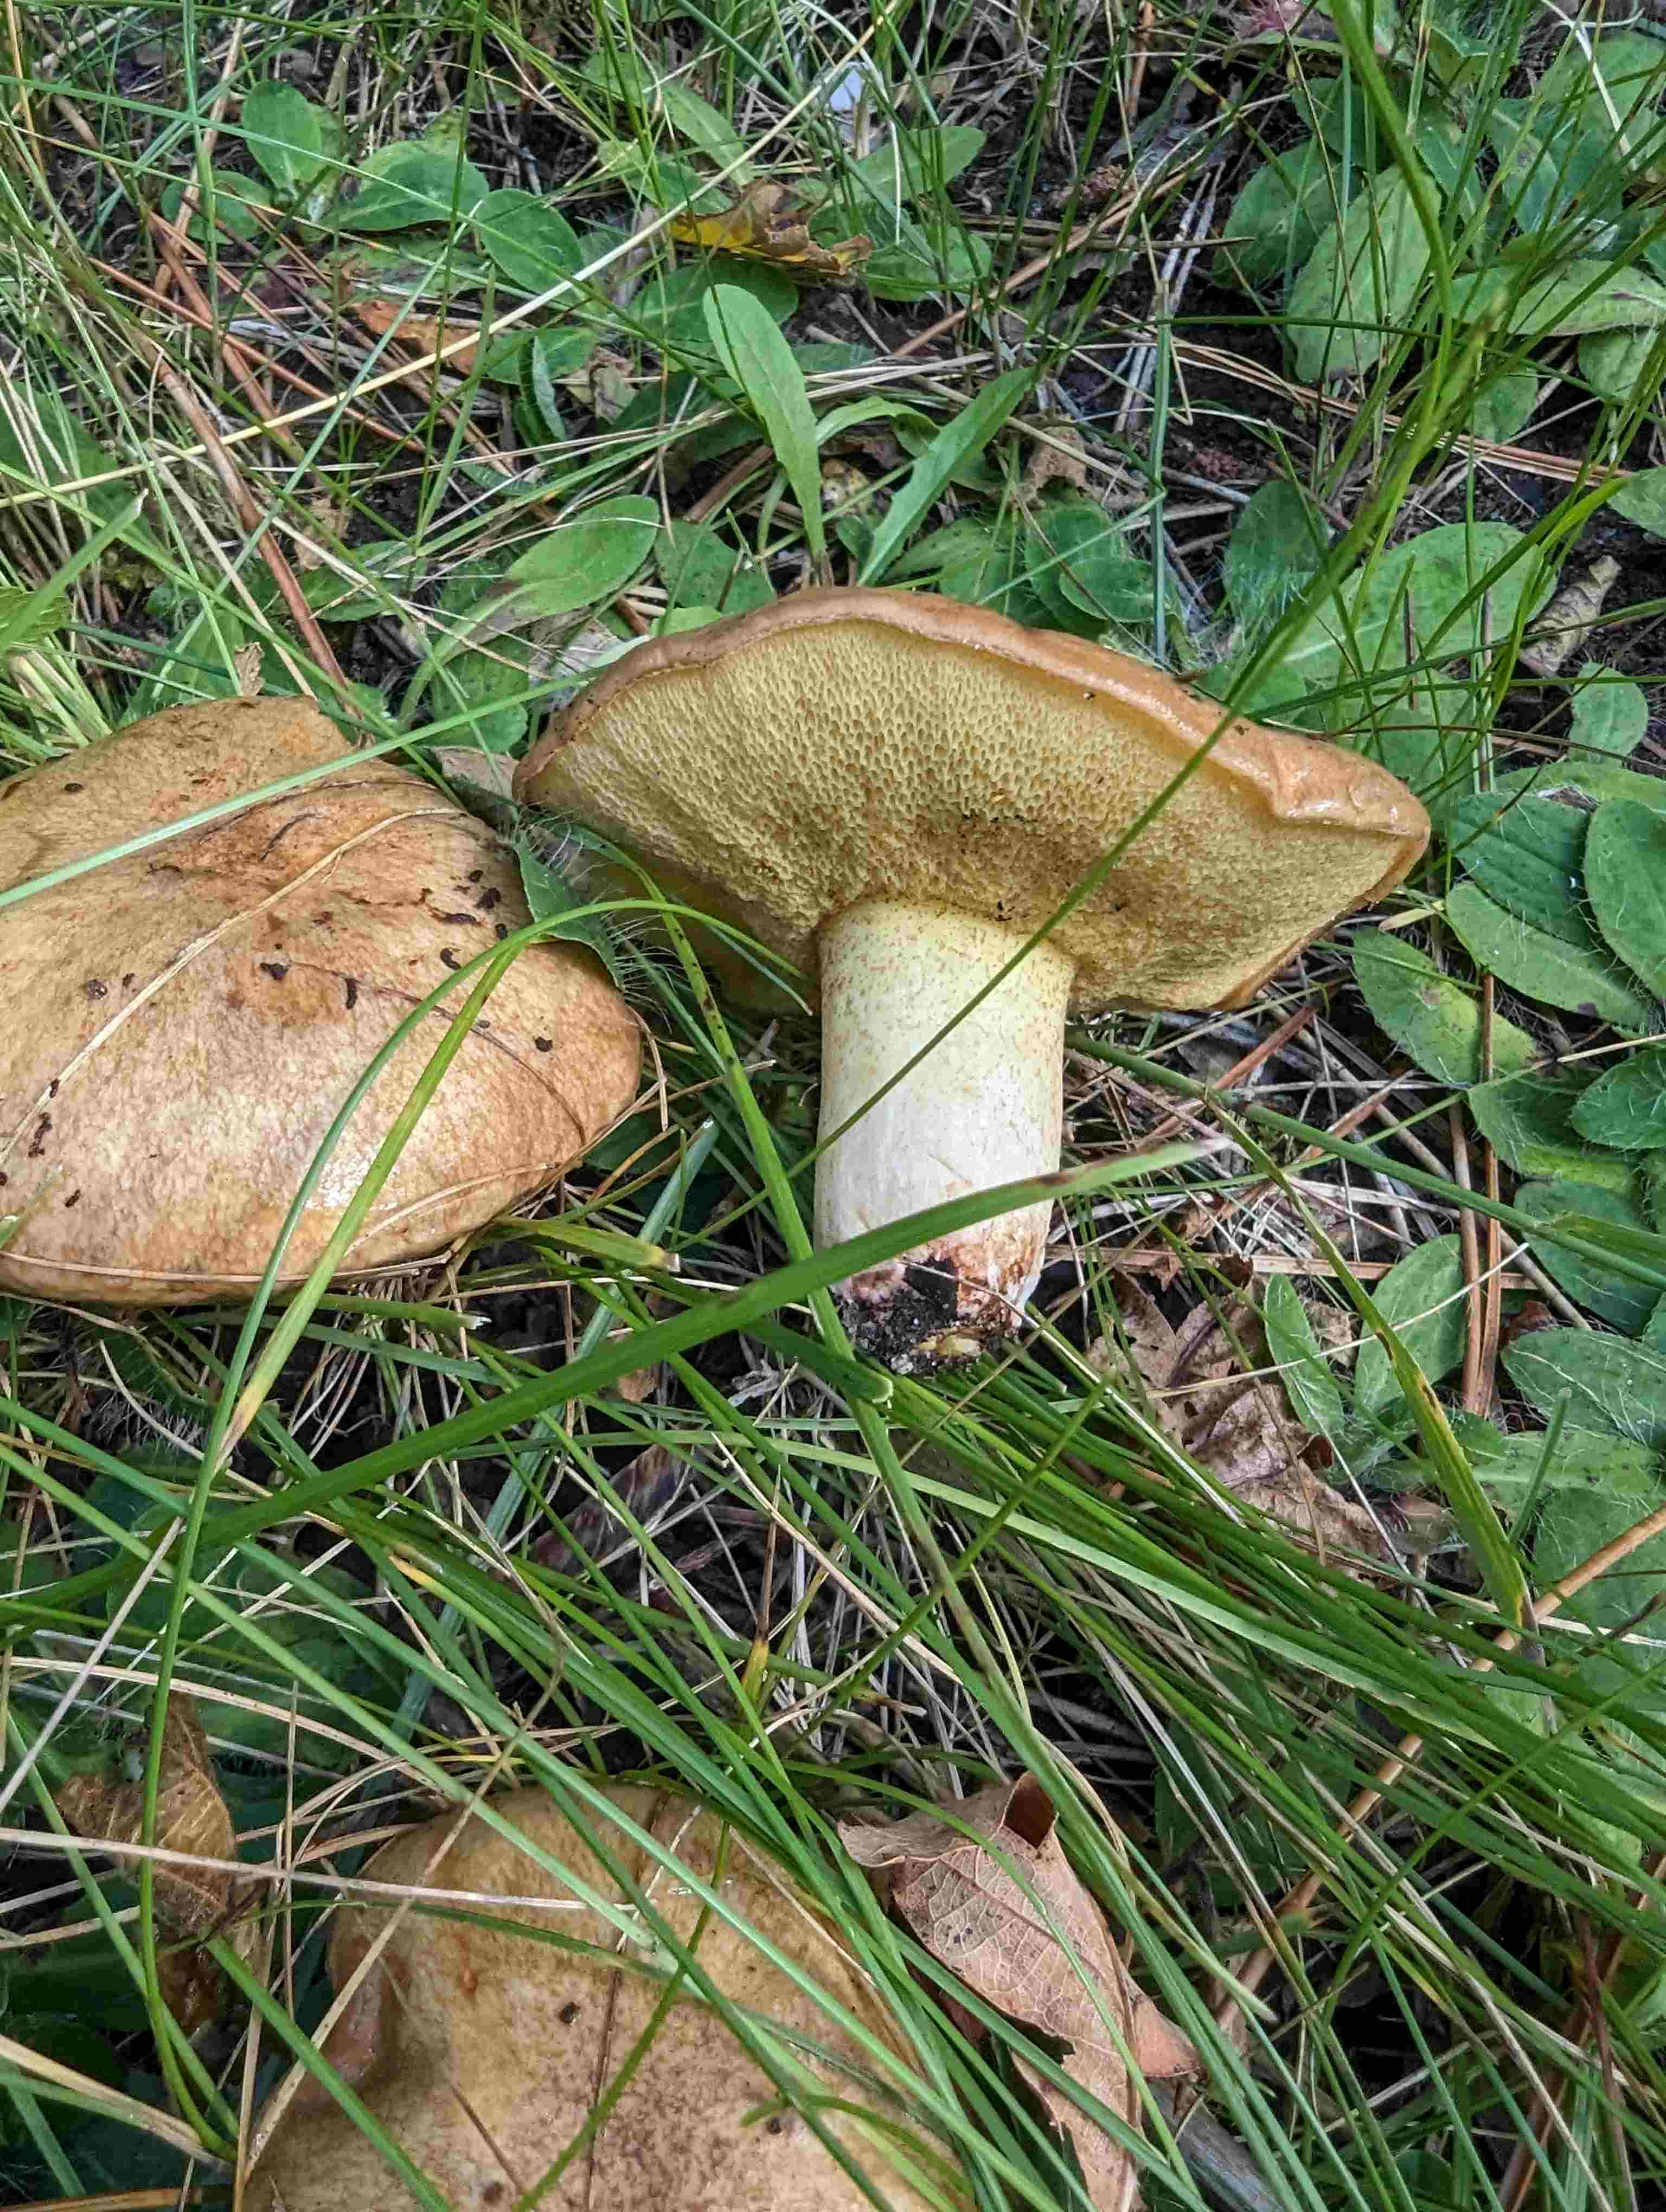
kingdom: Fungi
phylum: Basidiomycota
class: Agaricomycetes
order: Boletales
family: Suillaceae
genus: Suillus
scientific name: Suillus collinitus
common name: rosafodet slimrørhat
